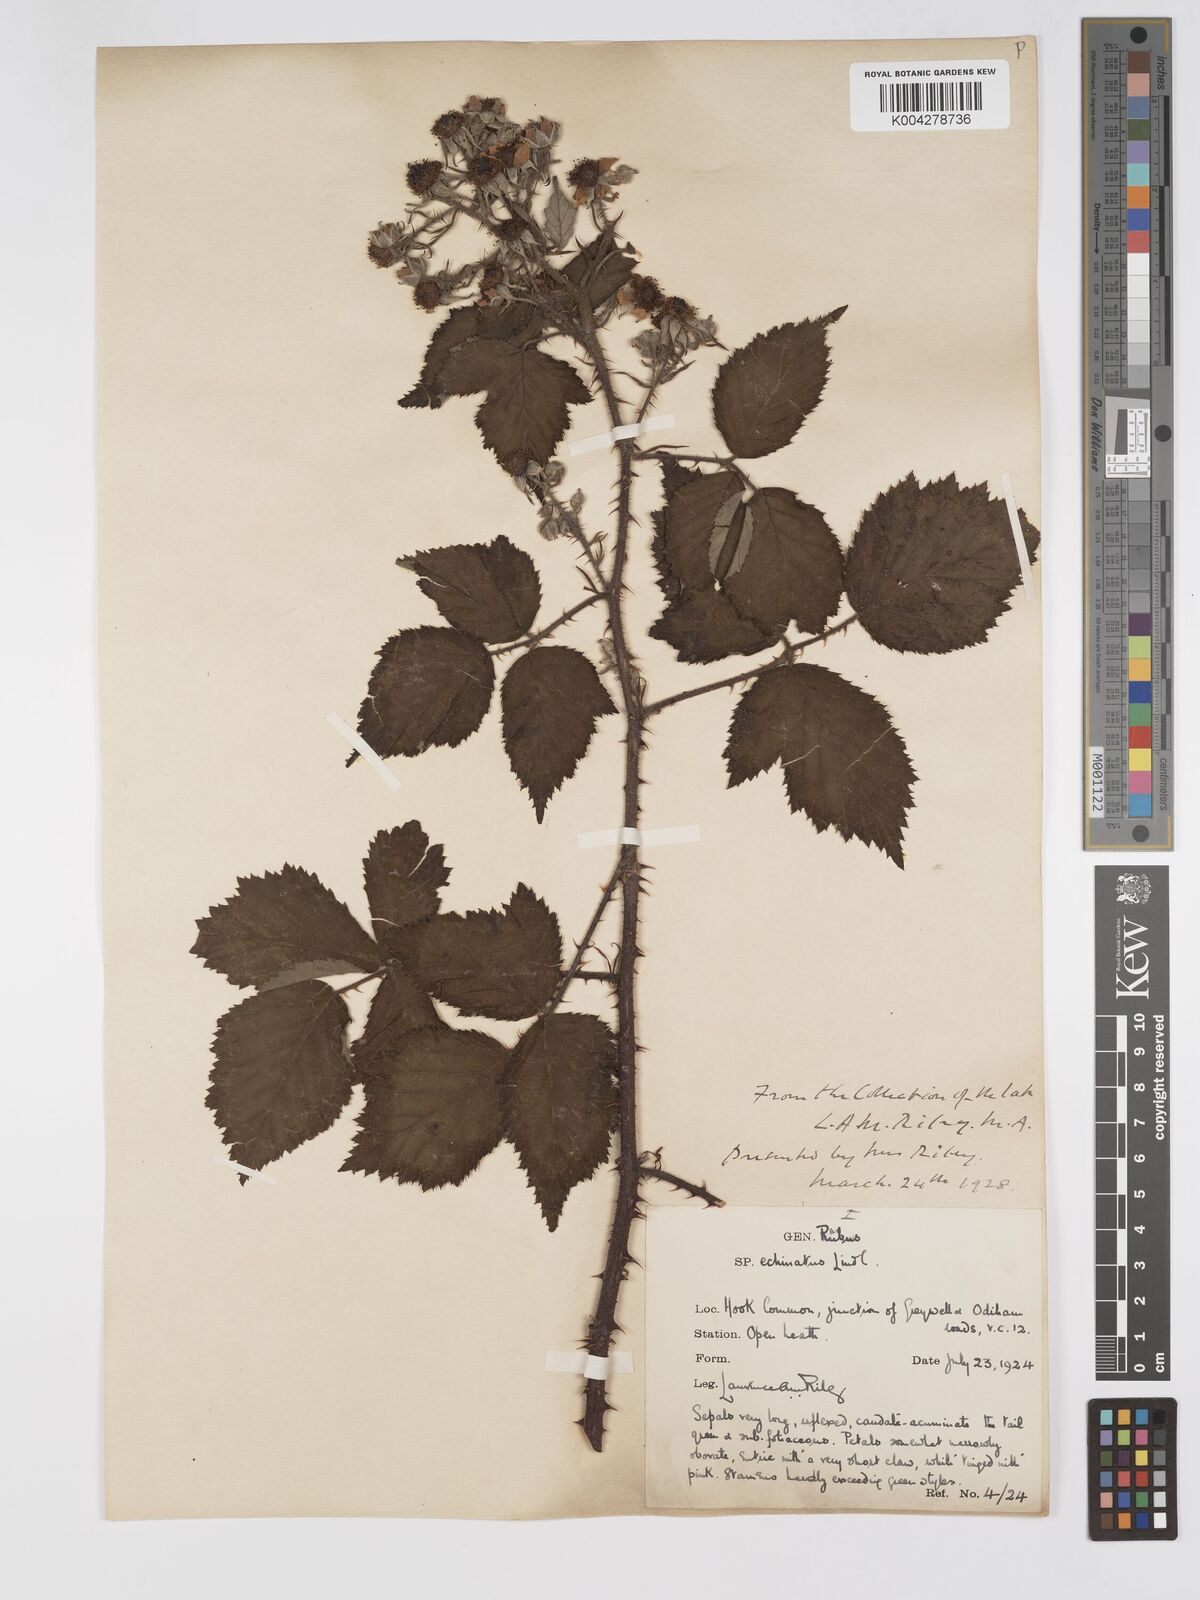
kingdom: Plantae
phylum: Tracheophyta
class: Magnoliopsida
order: Rosales
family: Rosaceae
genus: Rubus
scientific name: Rubus echinatus
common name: Echinate bramble
